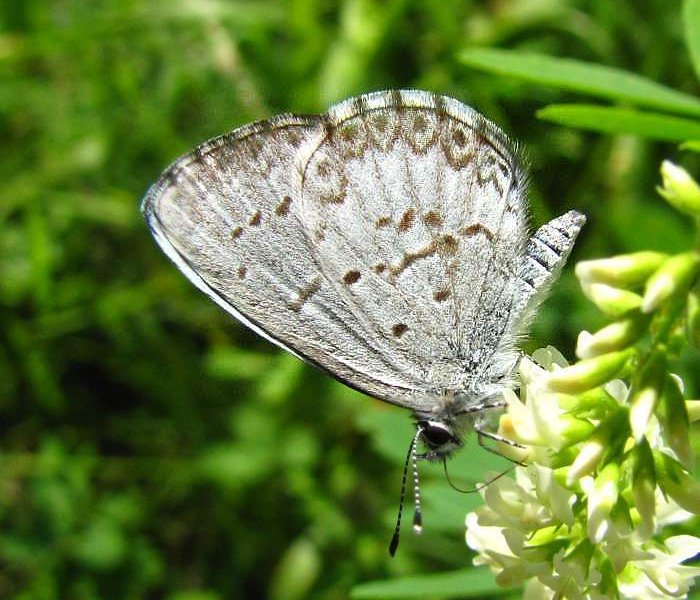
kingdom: Animalia
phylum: Arthropoda
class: Insecta
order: Lepidoptera
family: Lycaenidae
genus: Cyaniris
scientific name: Cyaniris neglecta
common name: Summer Azure
